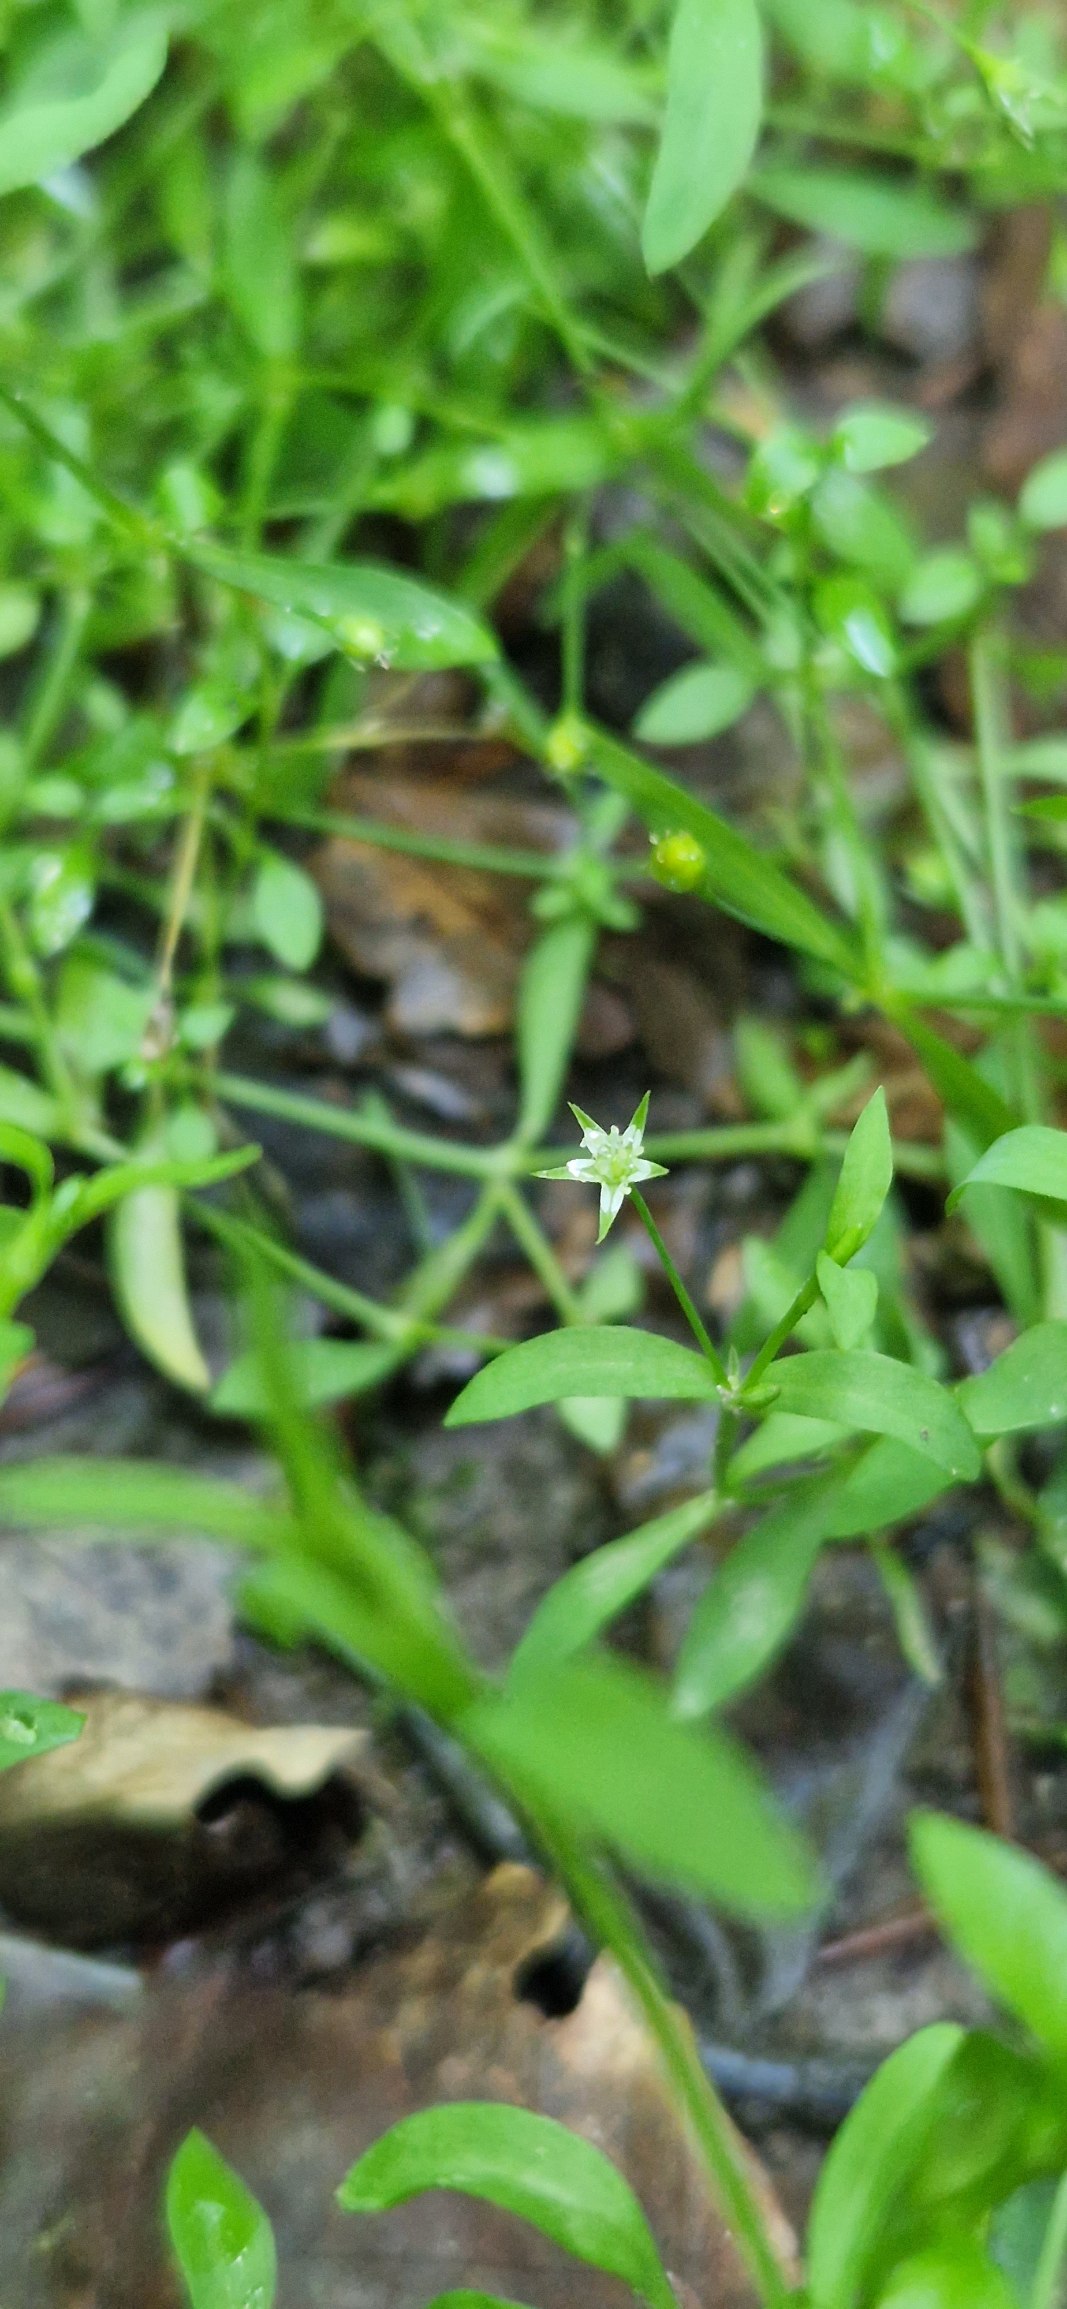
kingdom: Plantae
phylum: Tracheophyta
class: Magnoliopsida
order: Caryophyllales
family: Caryophyllaceae
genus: Stellaria
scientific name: Stellaria alsine
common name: Sump-fladstjerne
